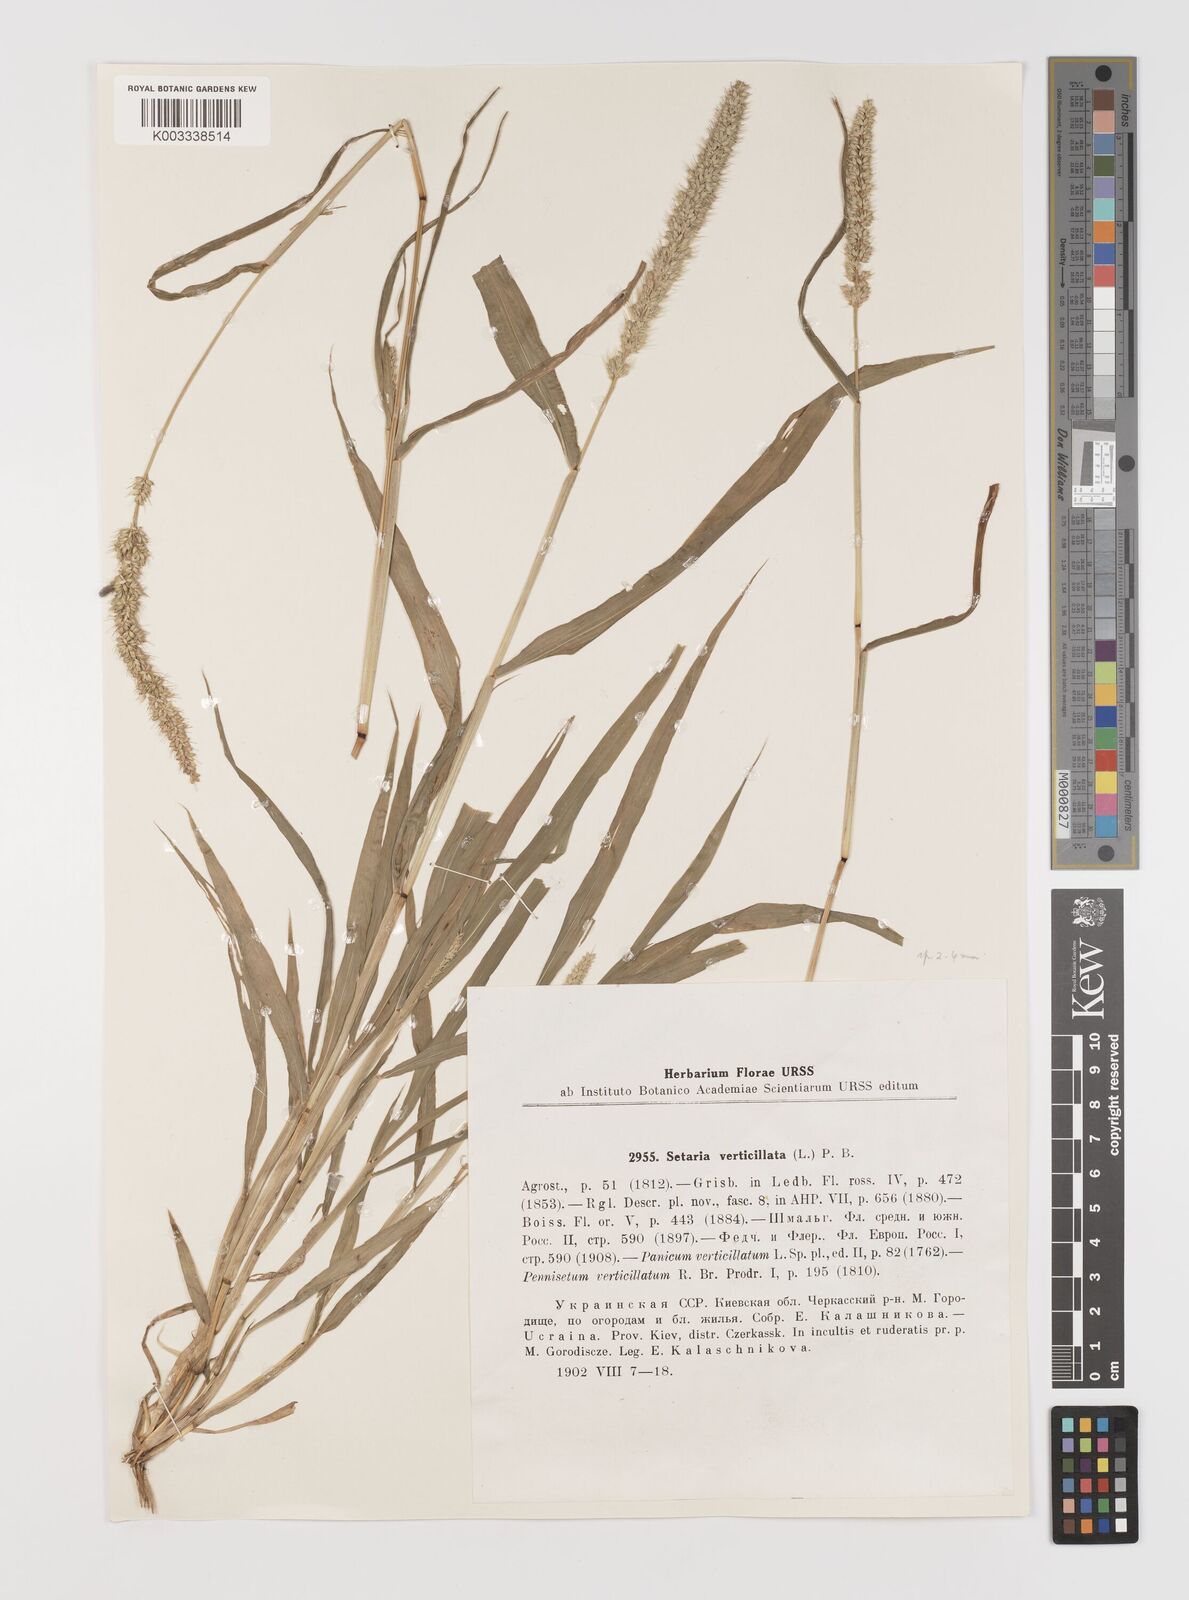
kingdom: Plantae
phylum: Tracheophyta
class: Liliopsida
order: Poales
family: Poaceae
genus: Setaria
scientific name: Setaria verticillata
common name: Hooked bristlegrass
